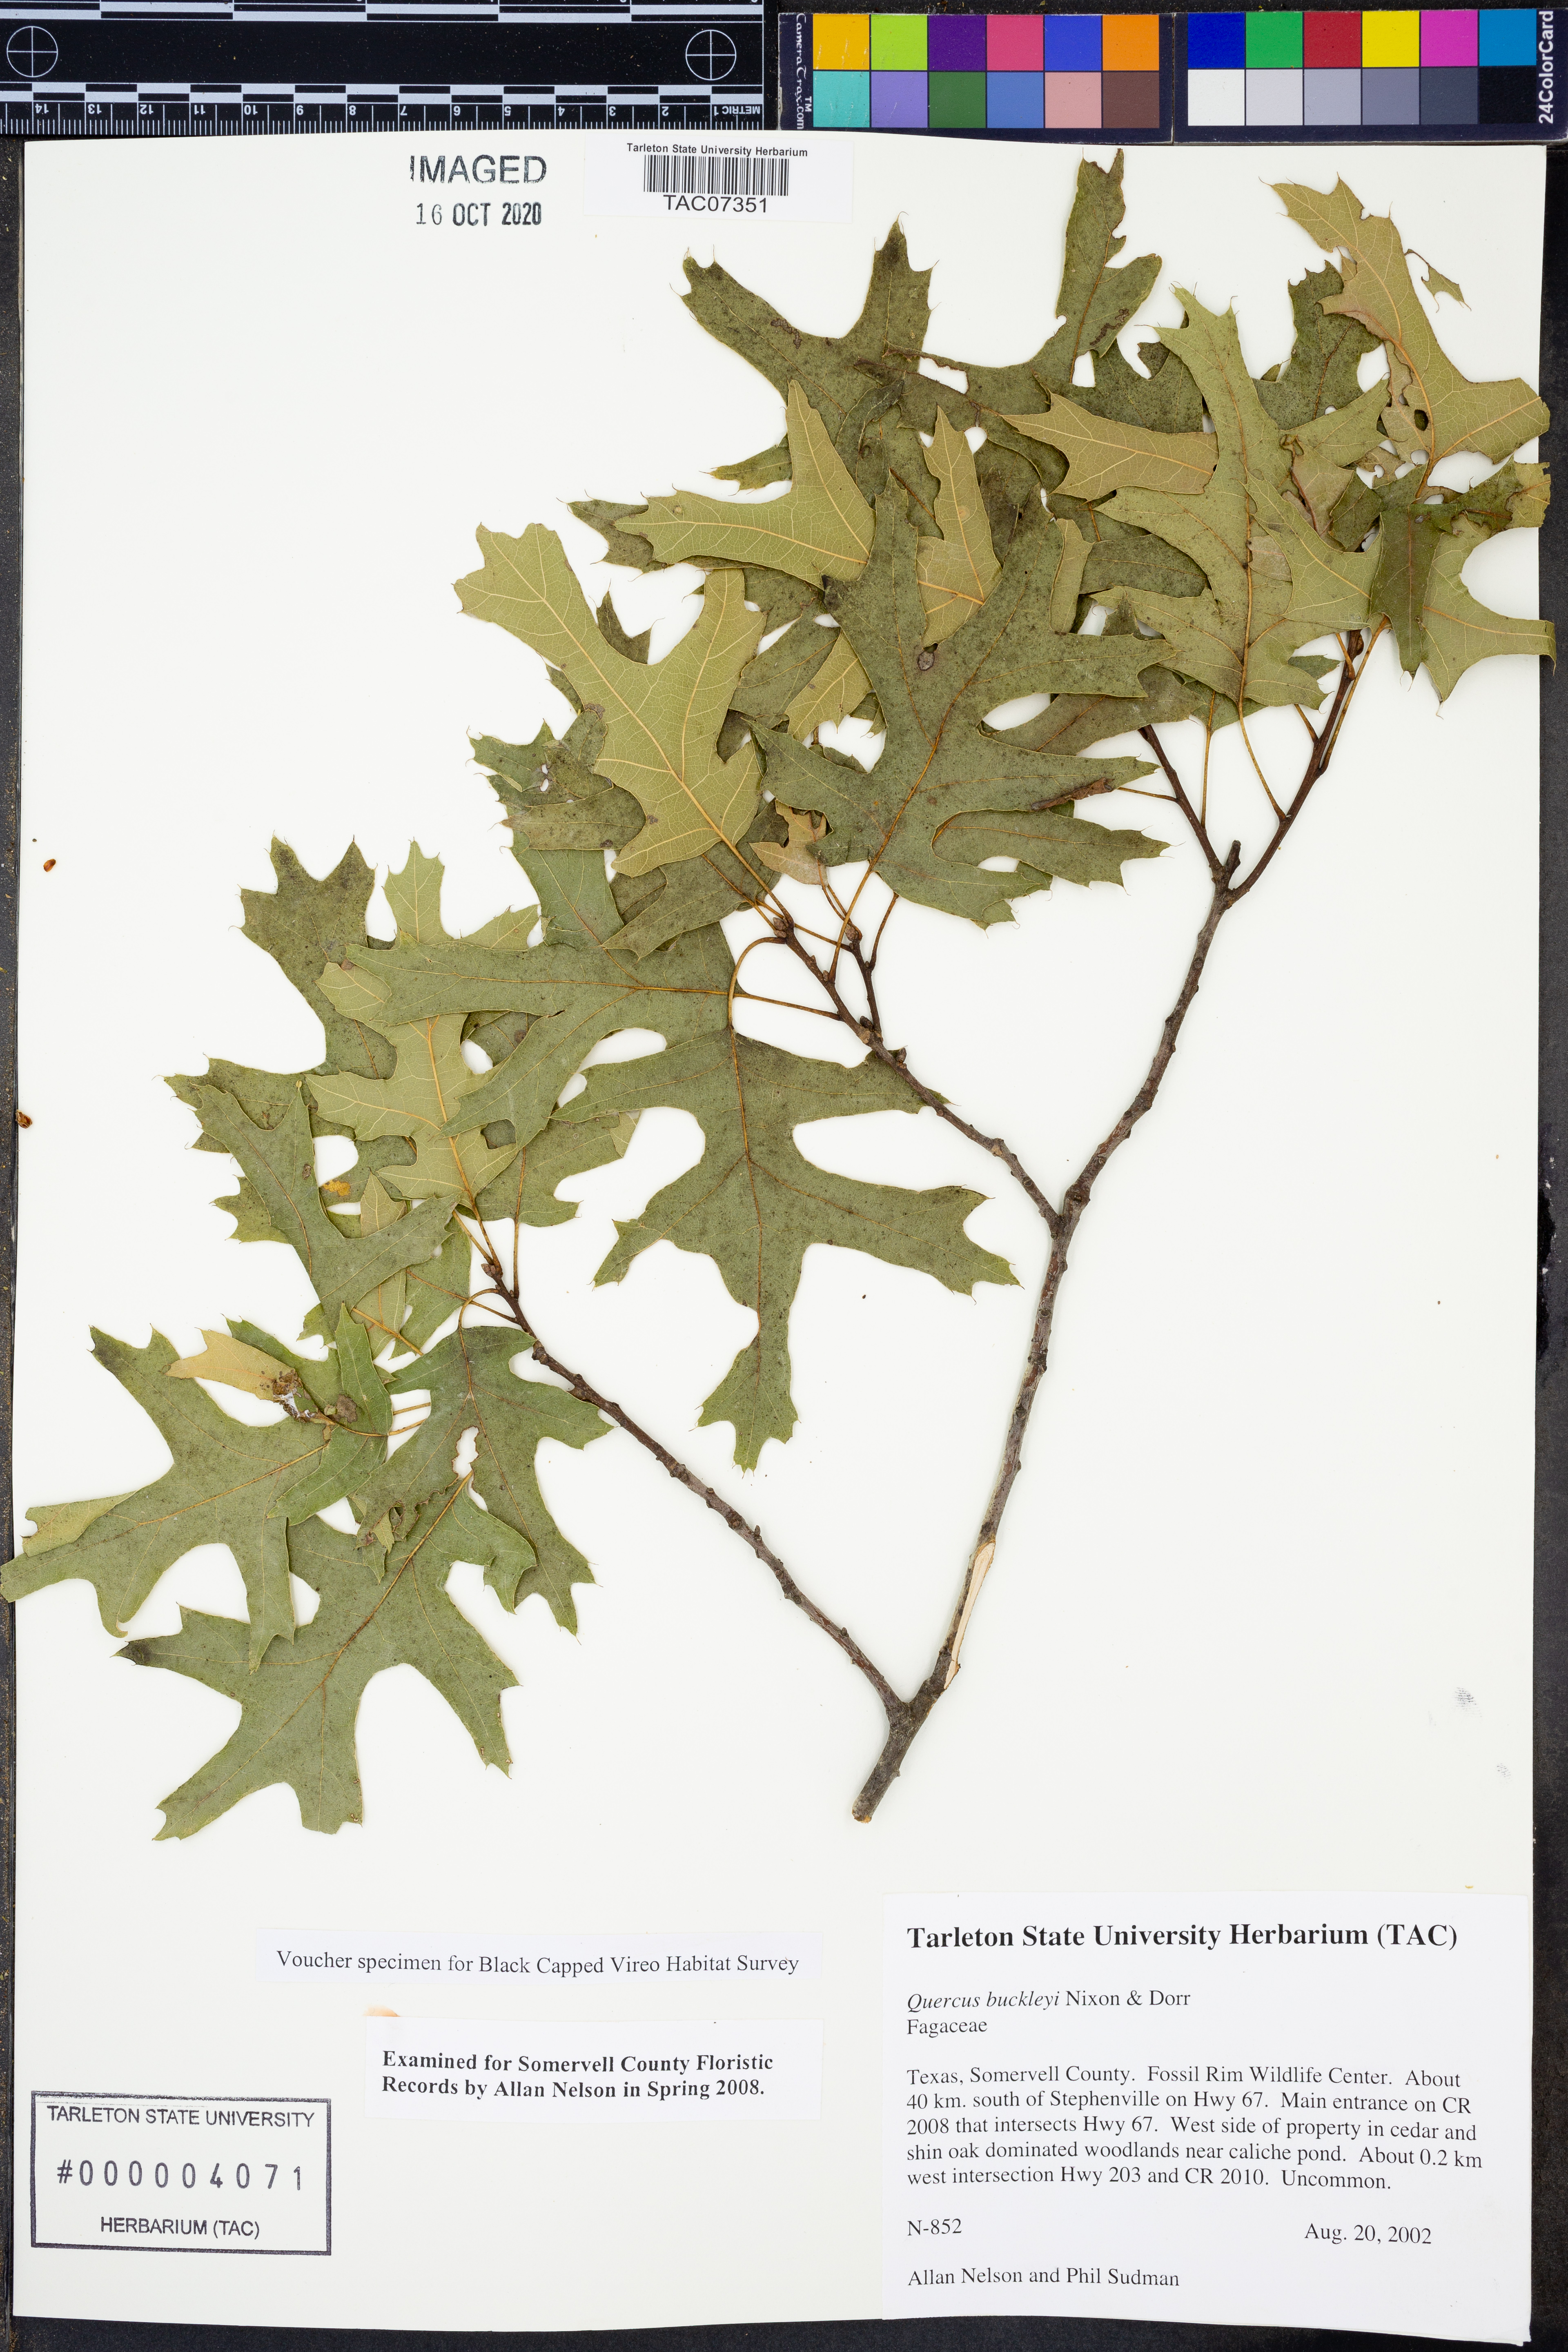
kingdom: Plantae
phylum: Tracheophyta
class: Magnoliopsida
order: Fagales
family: Fagaceae
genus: Quercus
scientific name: Quercus buckleyi
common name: Buckley oak
